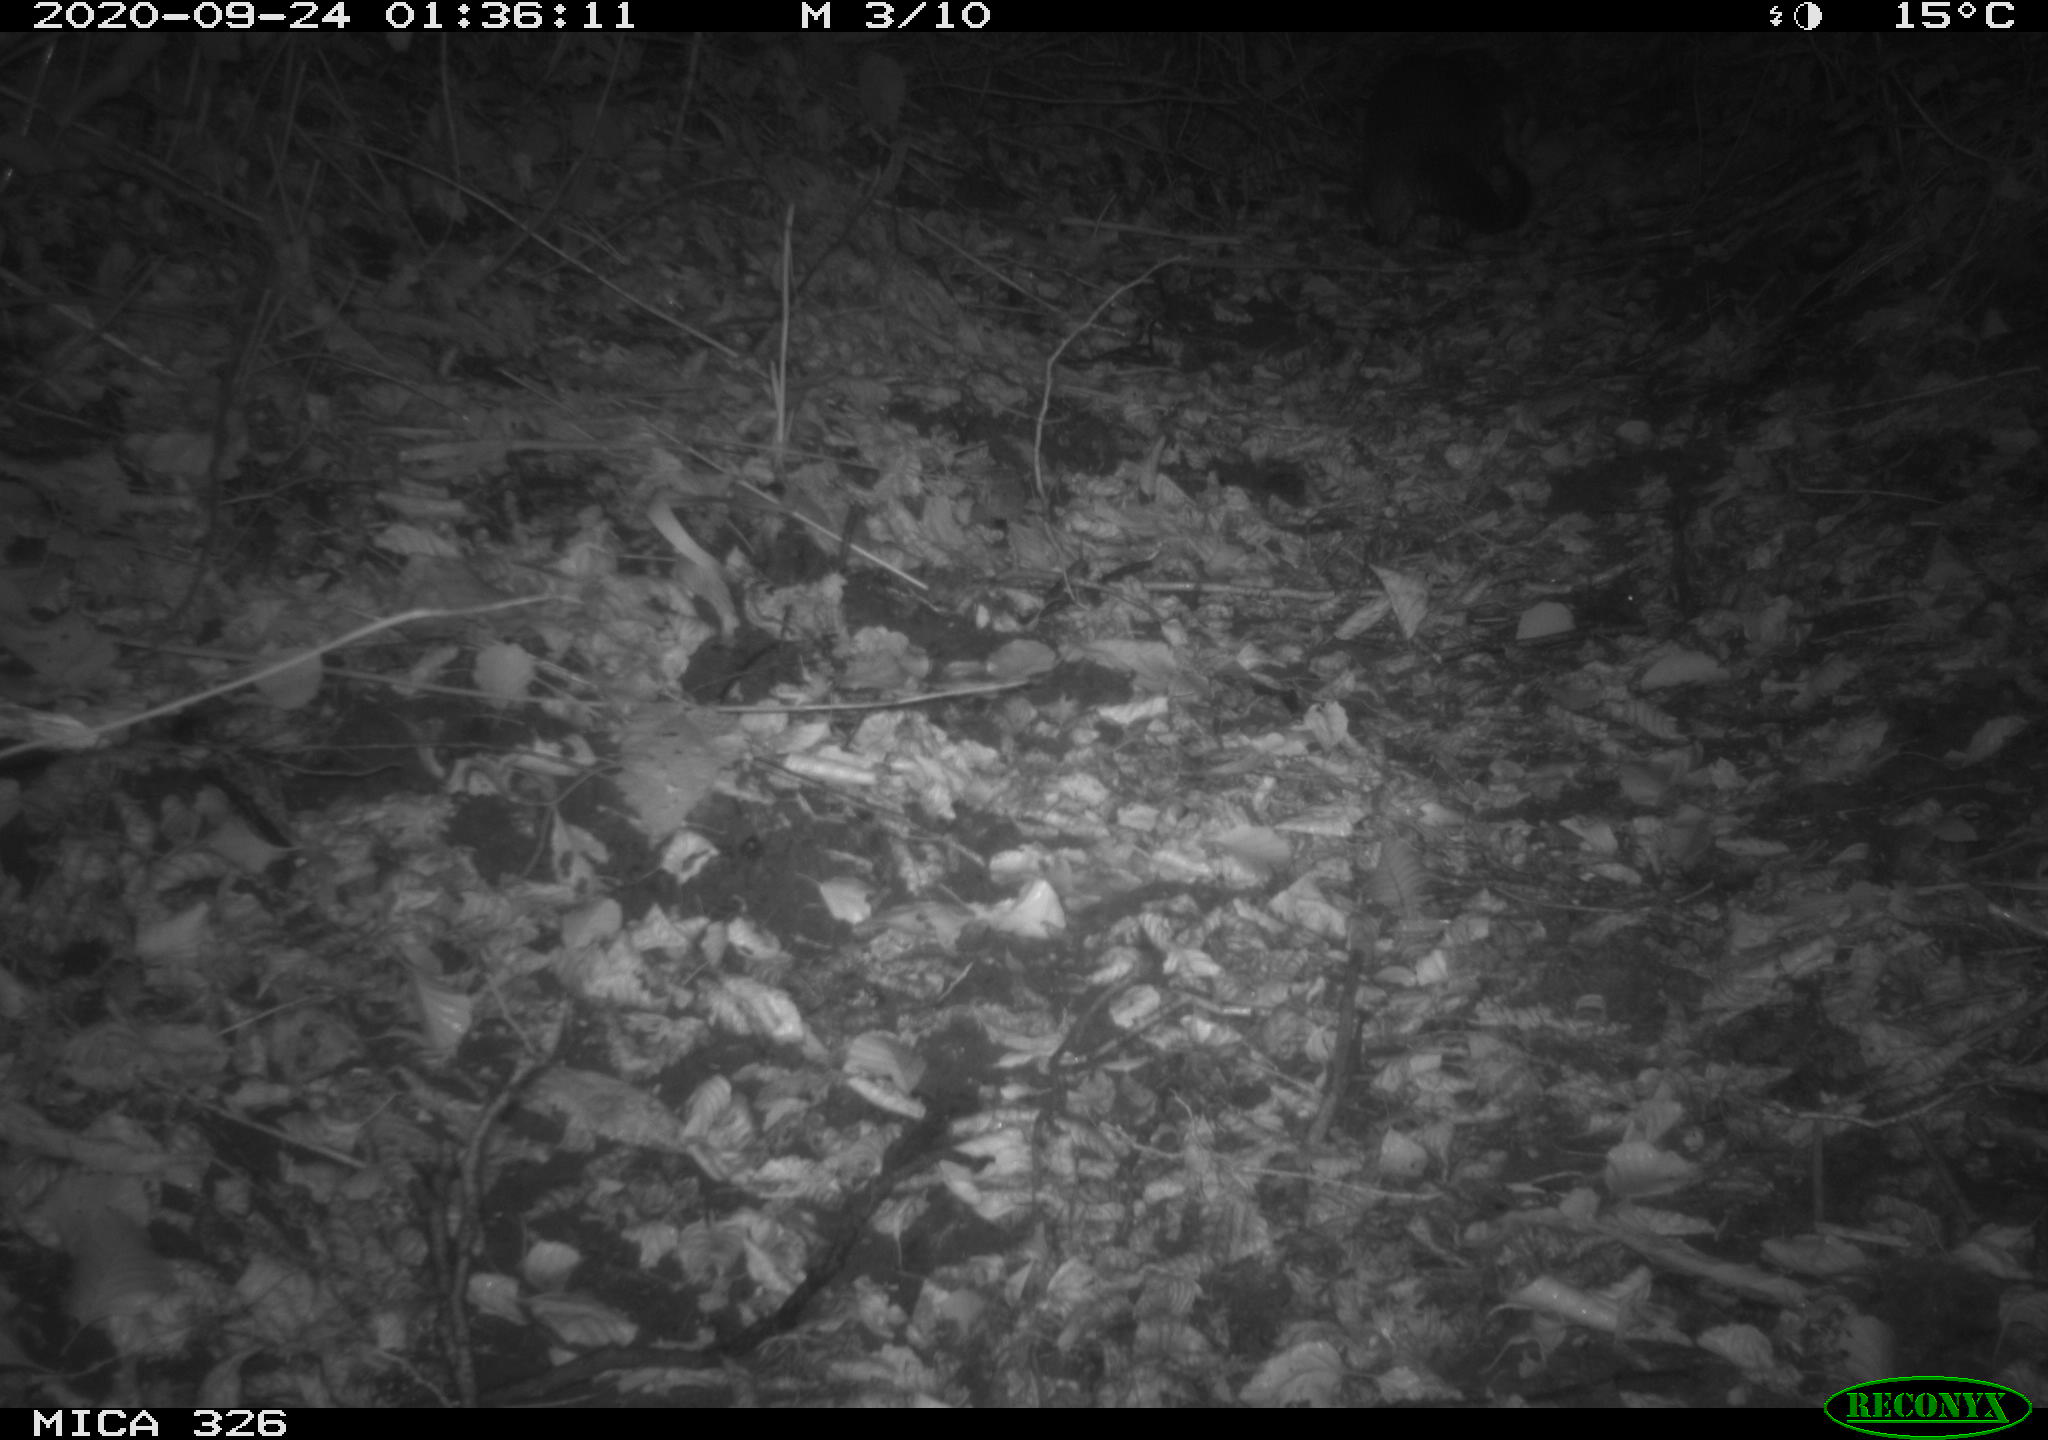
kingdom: Animalia
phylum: Chordata
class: Mammalia
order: Carnivora
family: Mustelidae
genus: Lutra
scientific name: Lutra lutra
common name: European otter
